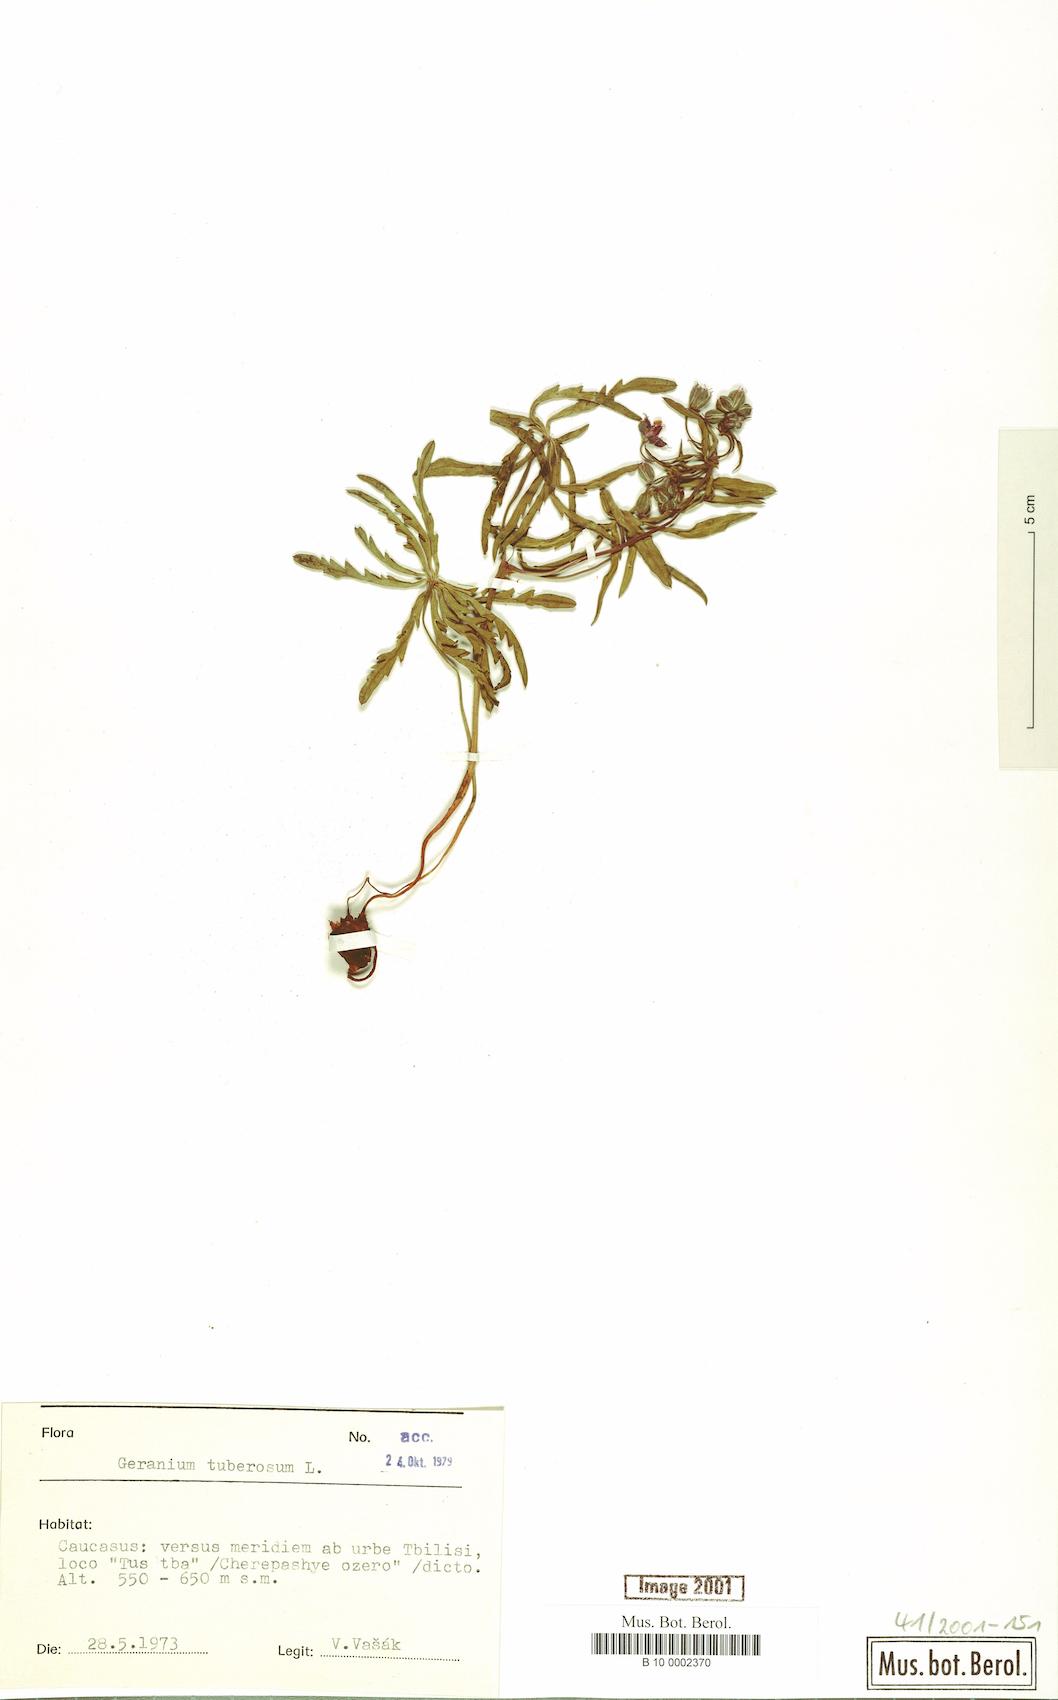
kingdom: Plantae
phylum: Tracheophyta
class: Magnoliopsida
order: Geraniales
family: Geraniaceae
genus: Geranium
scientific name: Geranium tuberosum
